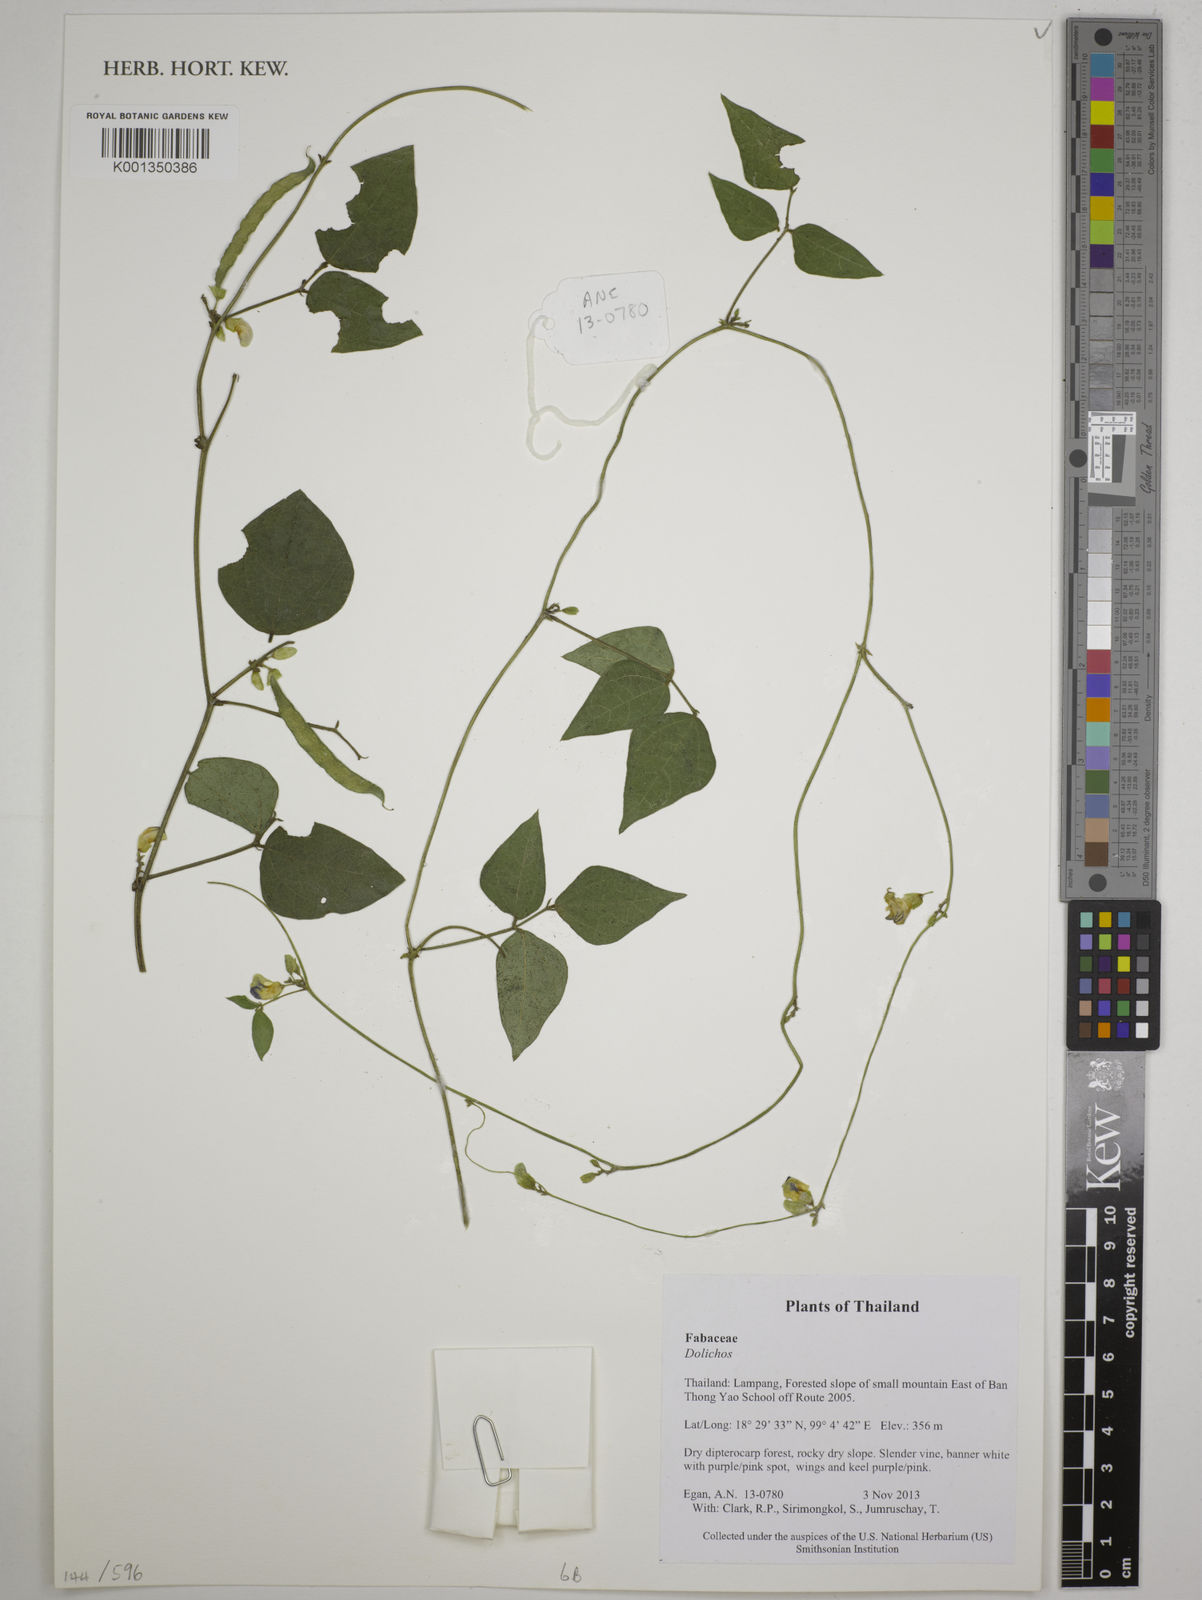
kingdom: Plantae
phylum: Tracheophyta
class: Magnoliopsida
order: Fabales
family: Fabaceae
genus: Dolichos
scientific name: Dolichos
